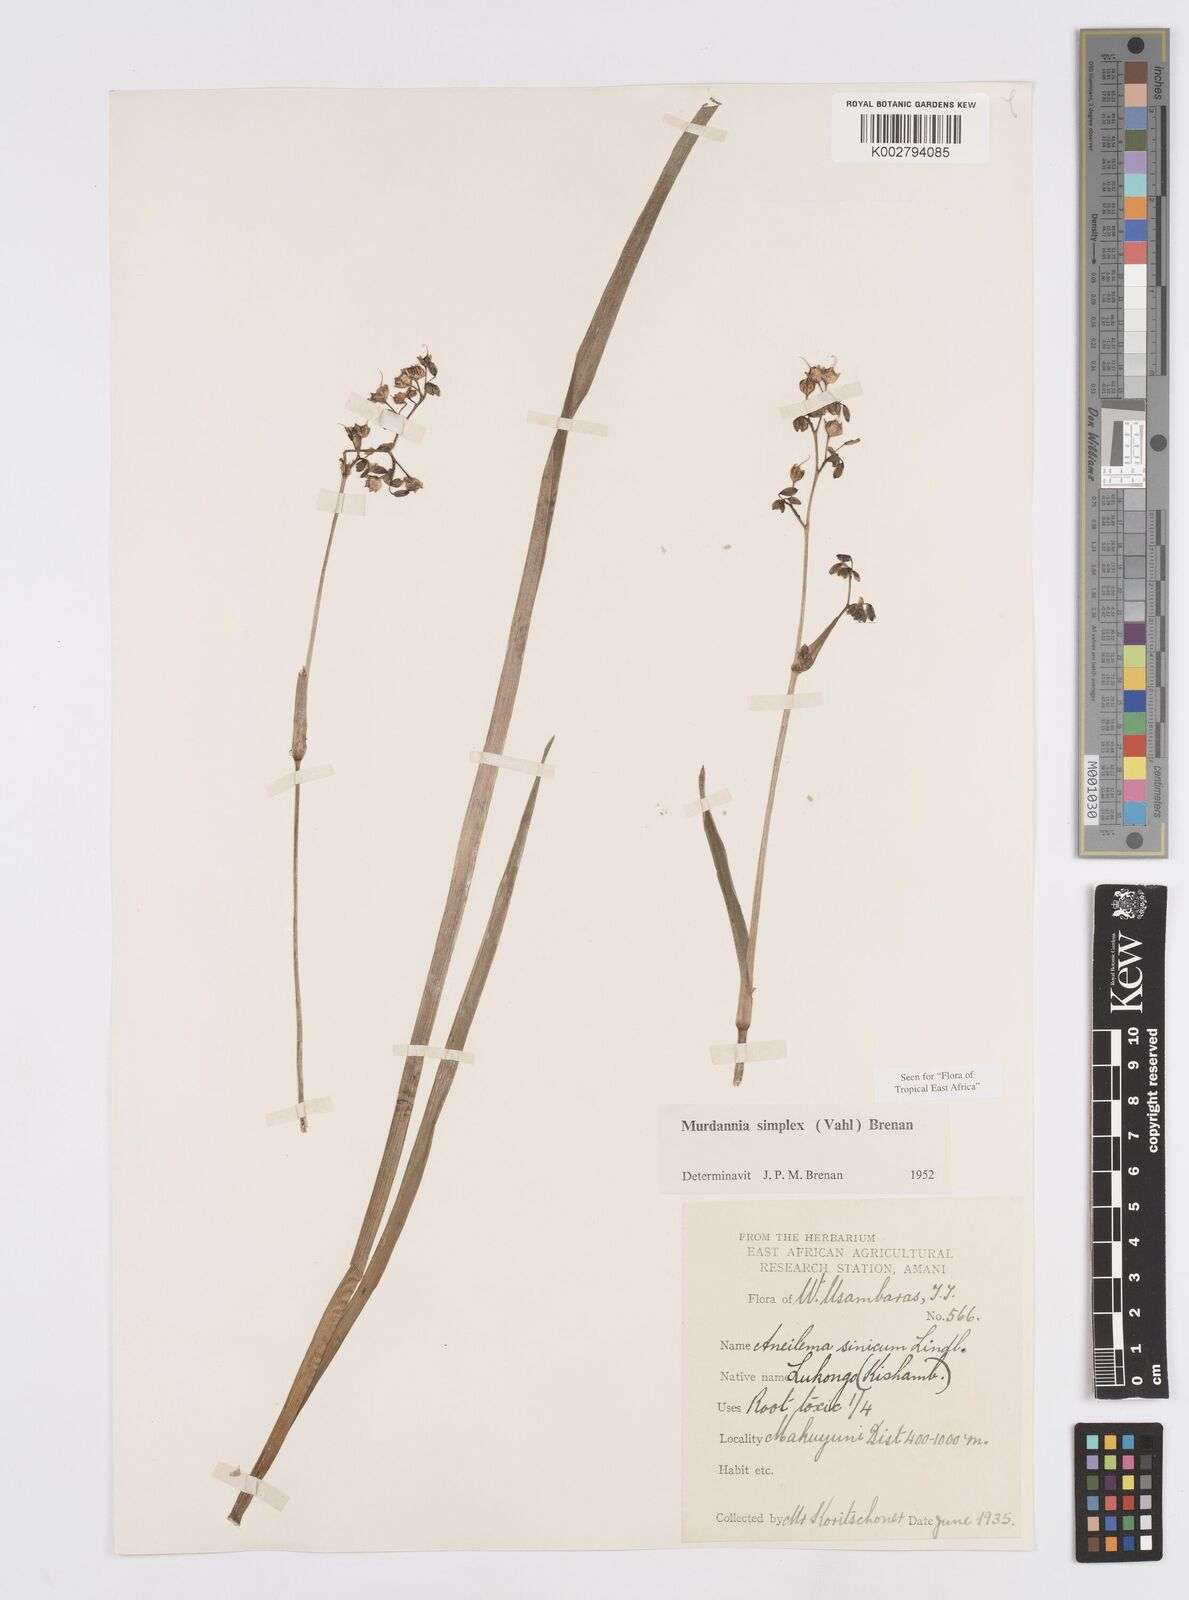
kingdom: Plantae
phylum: Tracheophyta
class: Liliopsida
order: Commelinales
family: Commelinaceae
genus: Murdannia
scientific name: Murdannia simplex
